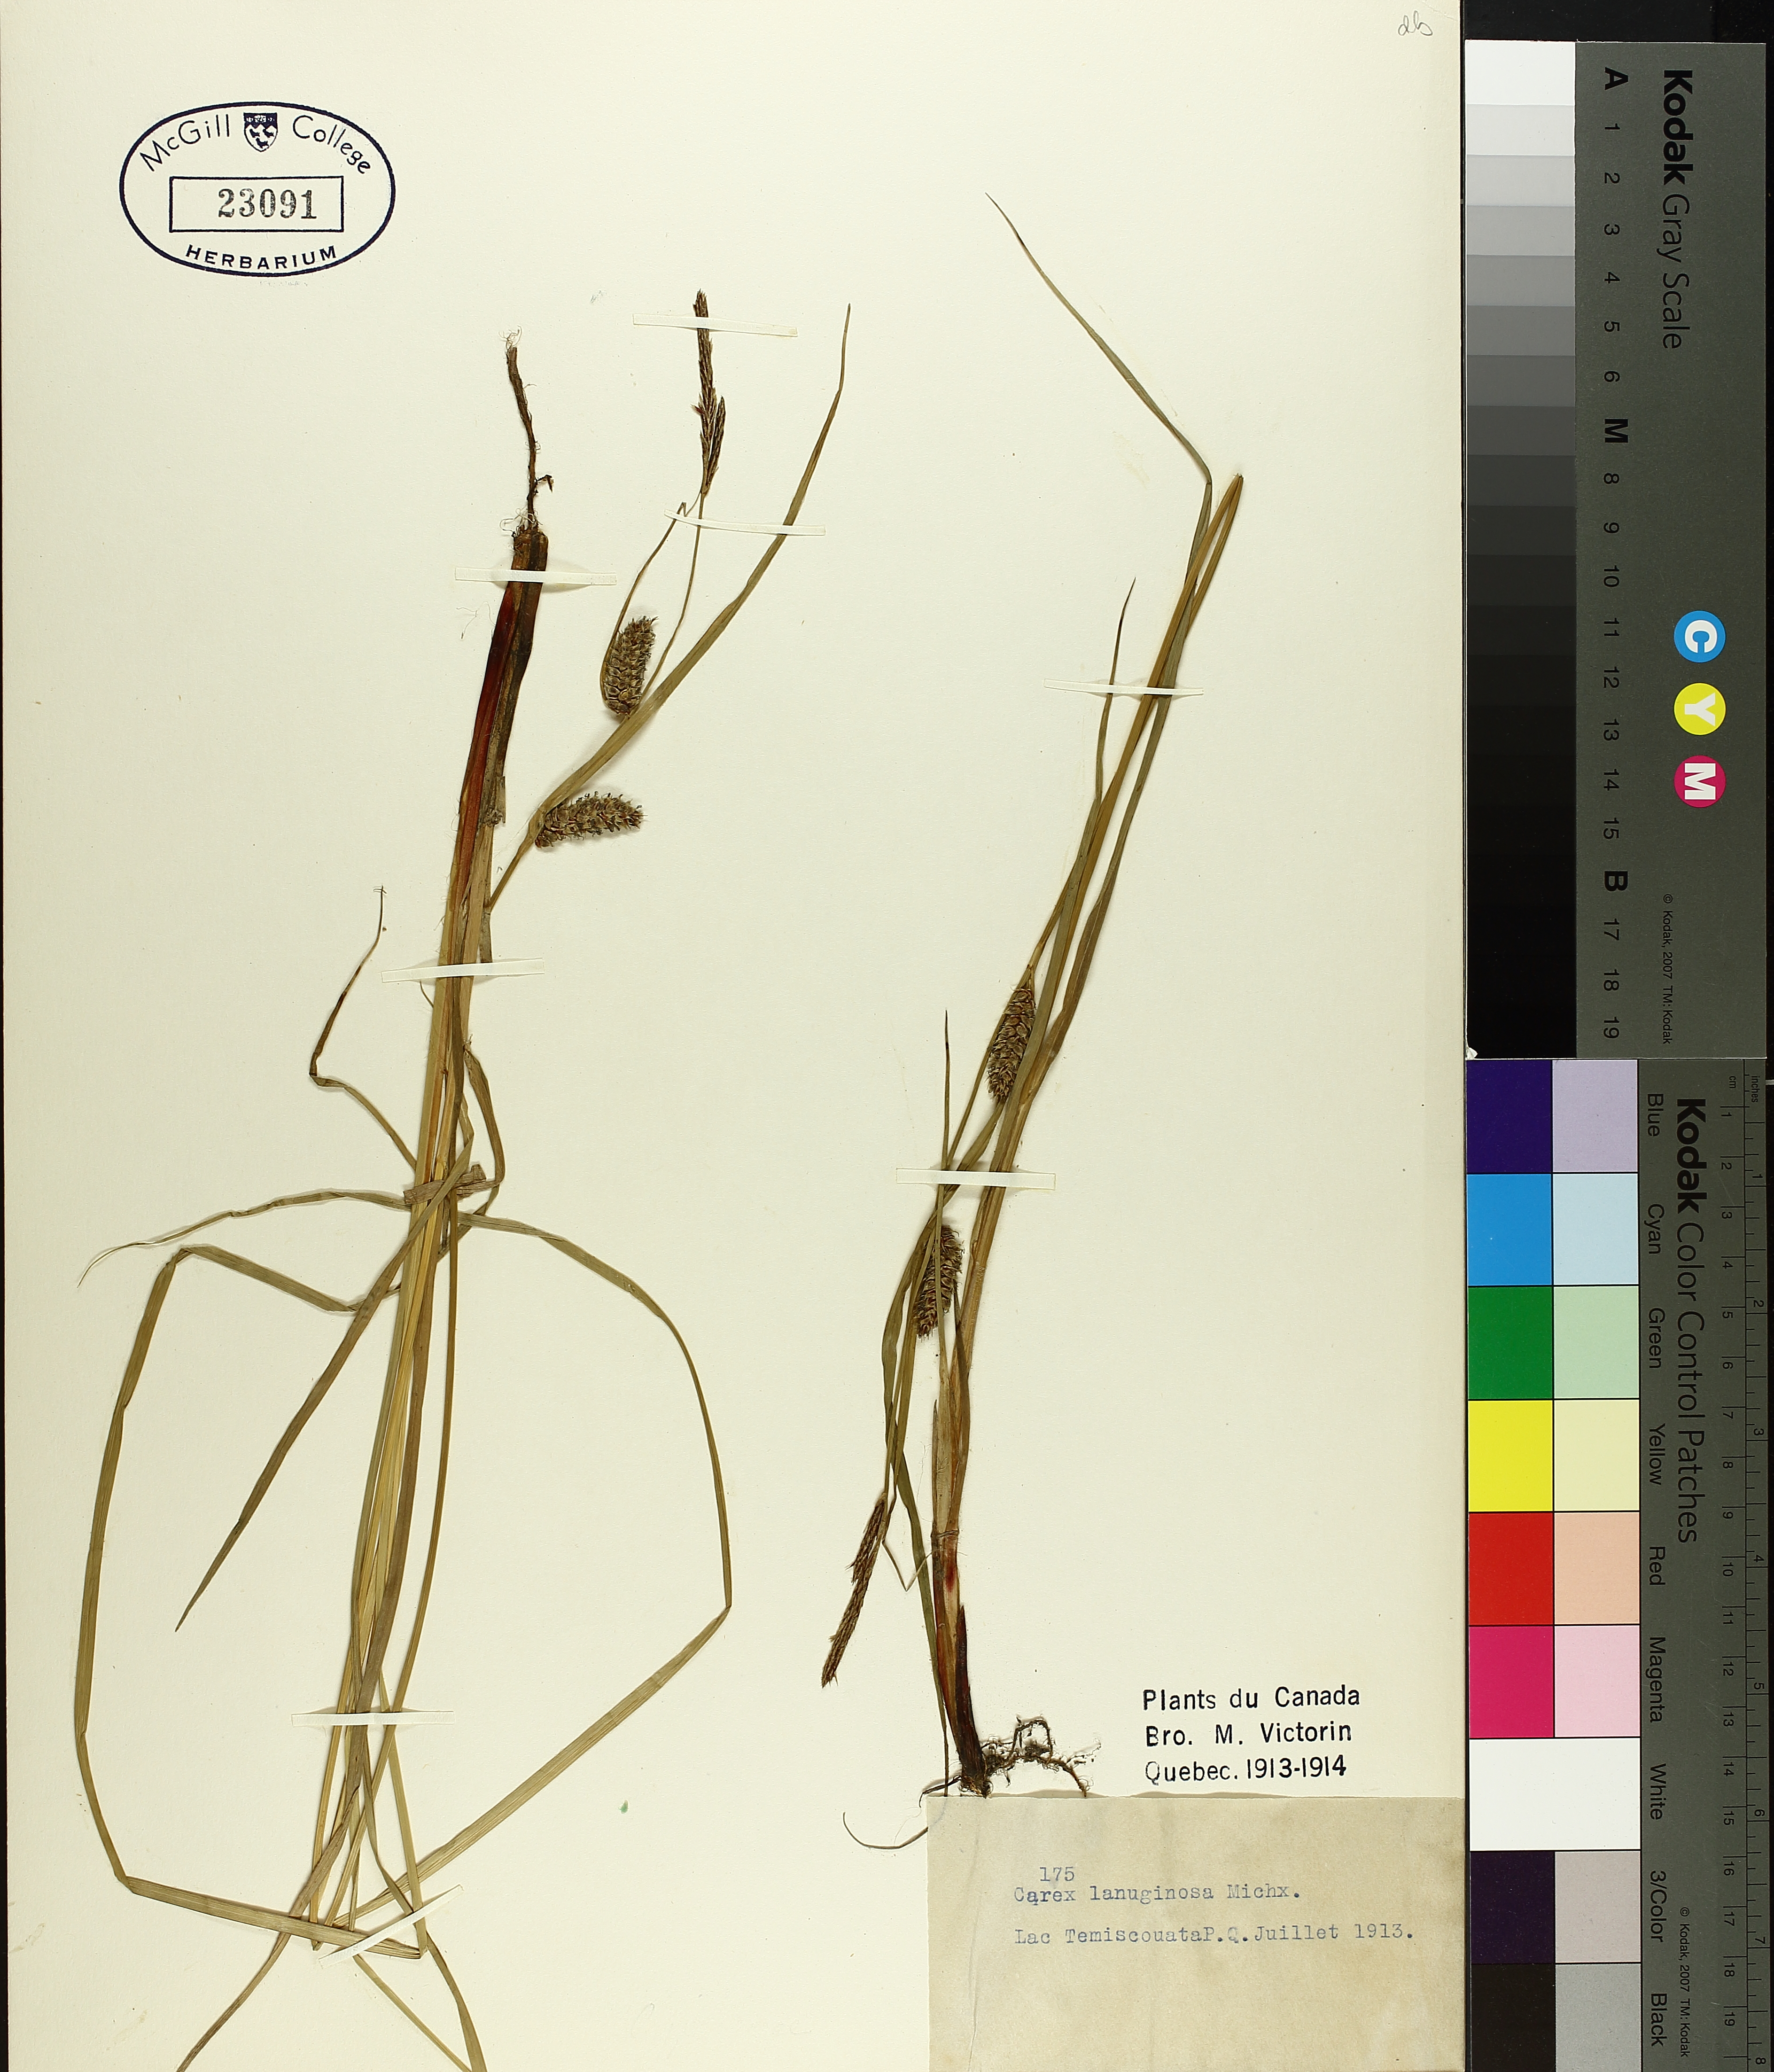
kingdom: Plantae
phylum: Tracheophyta
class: Liliopsida
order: Poales
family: Cyperaceae
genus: Carex
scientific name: Carex pellita
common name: Woolly sedge
